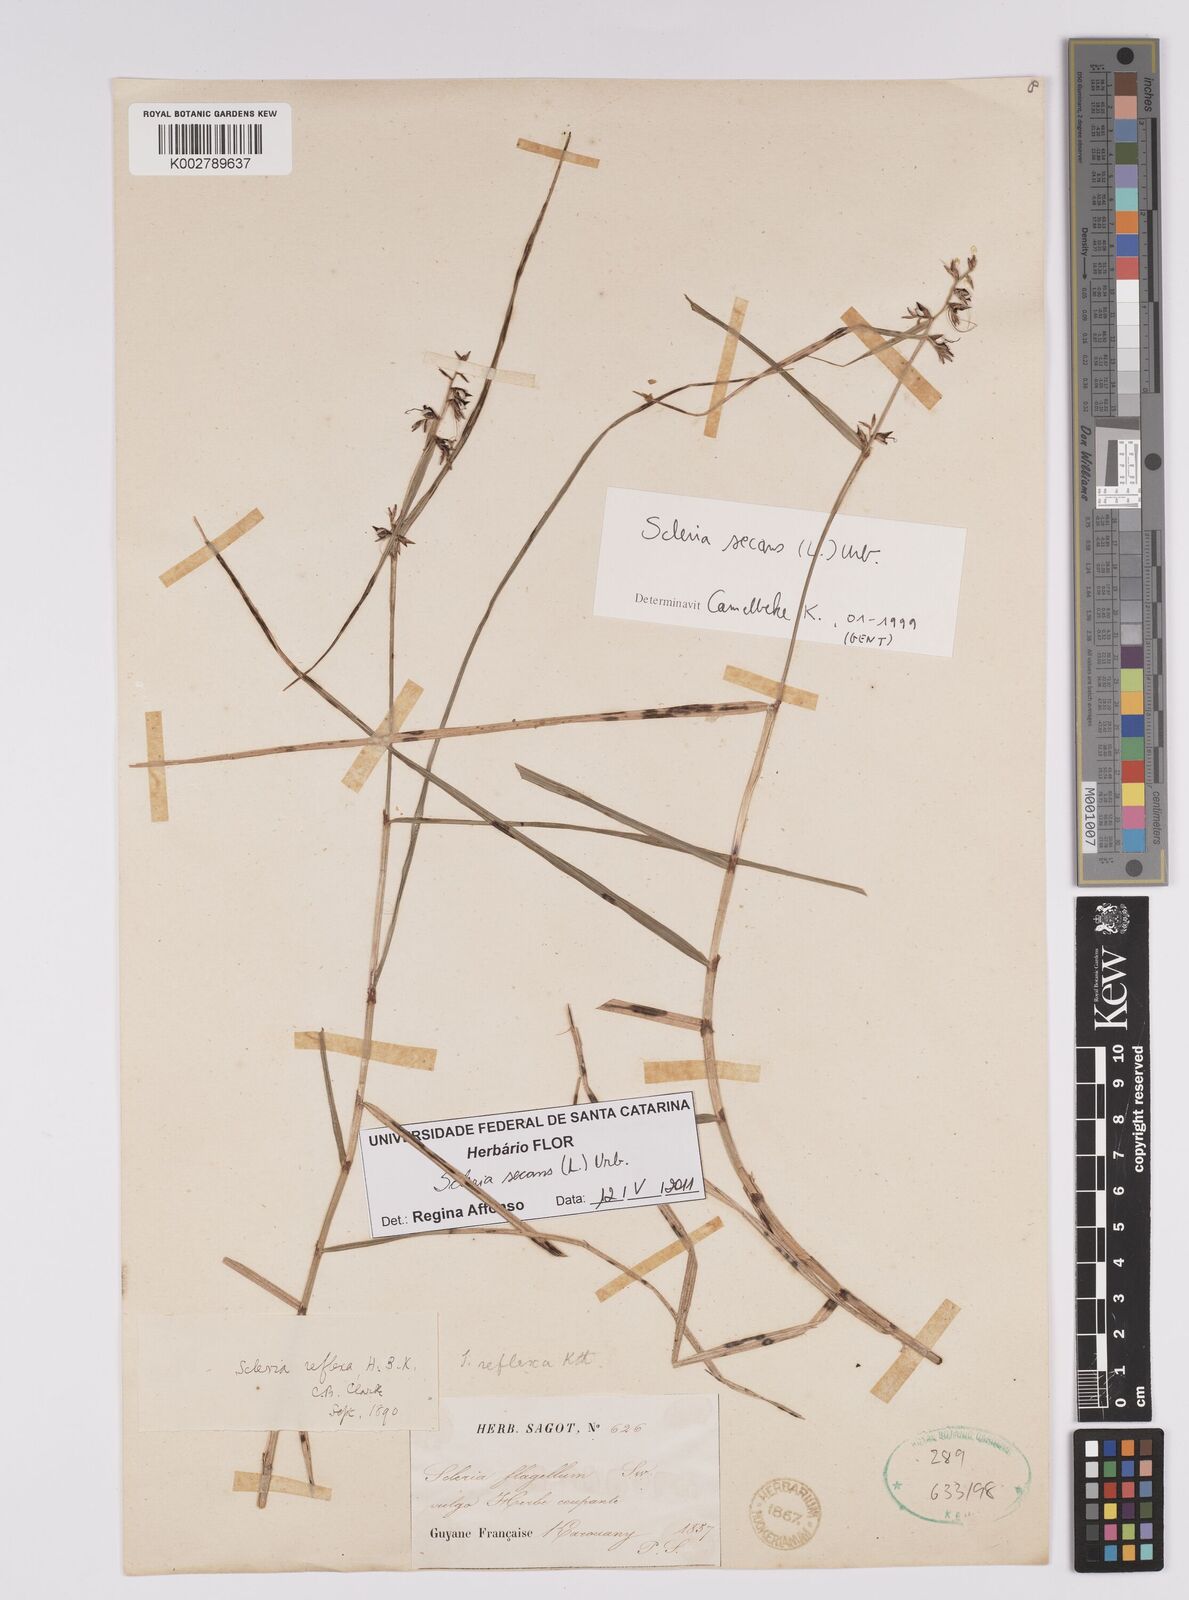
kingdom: Plantae
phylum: Tracheophyta
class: Liliopsida
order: Poales
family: Cyperaceae
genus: Scleria
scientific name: Scleria secans
